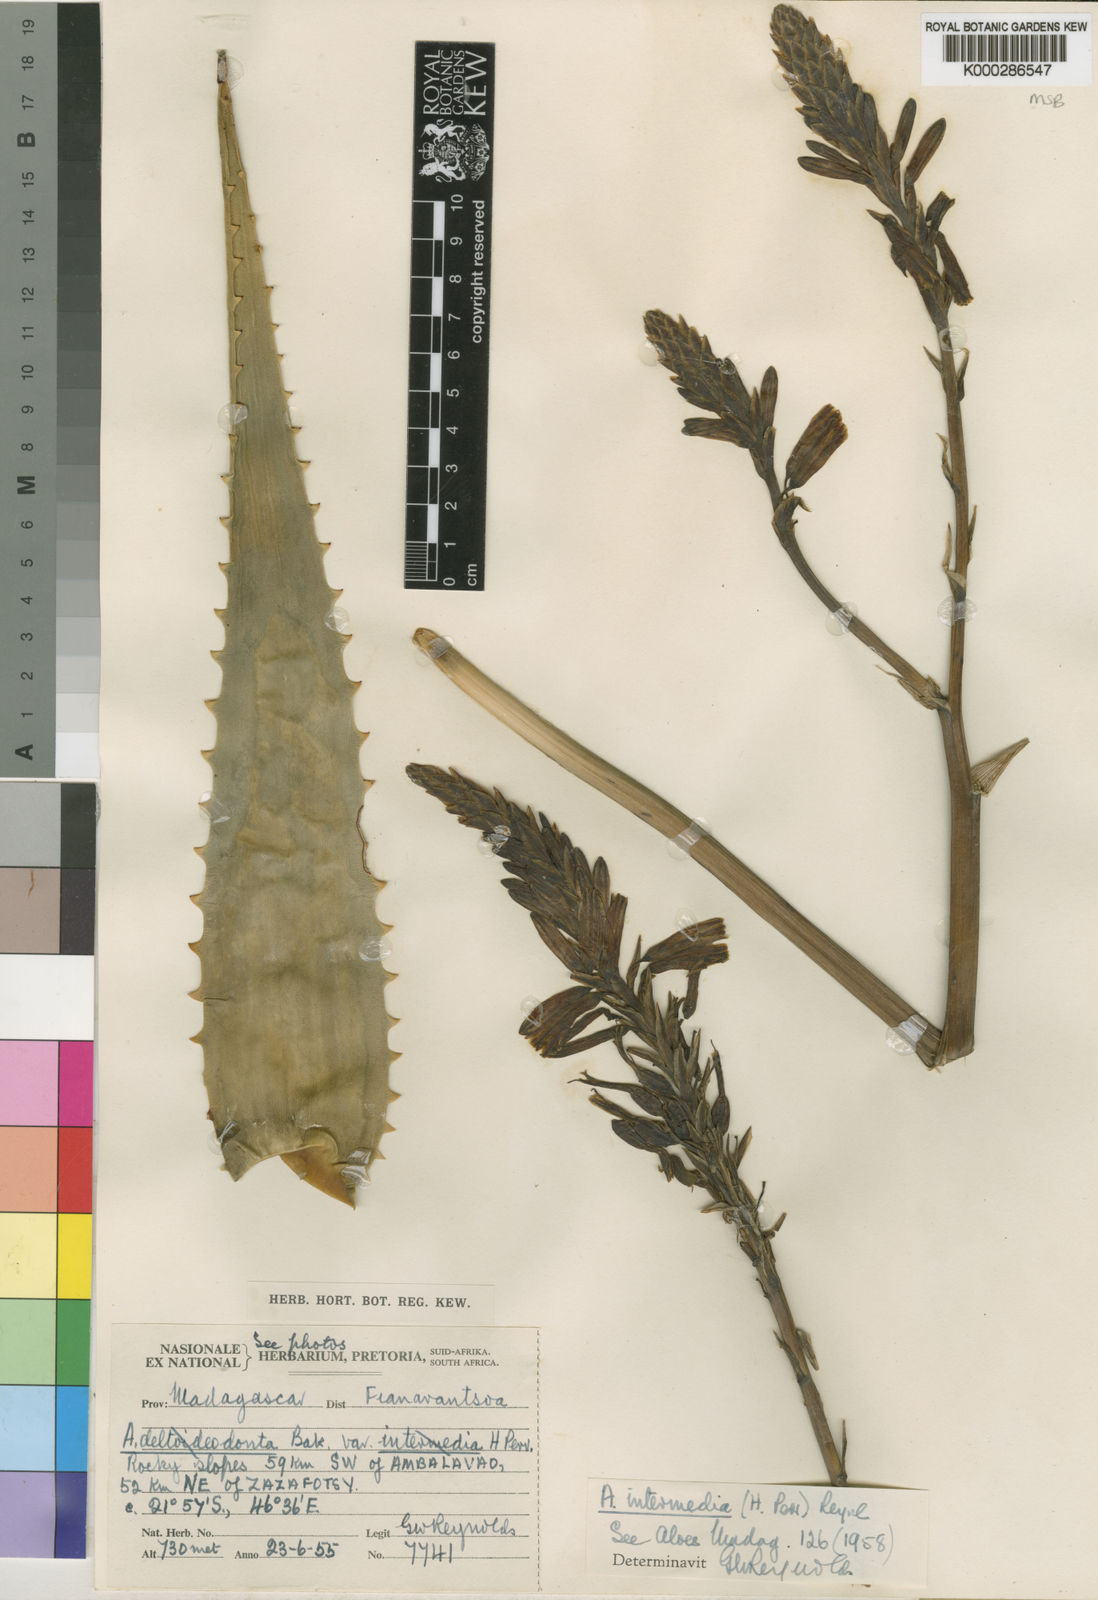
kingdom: Plantae
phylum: Tracheophyta
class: Liliopsida
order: Asparagales
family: Asphodelaceae
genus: Aloe
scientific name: Aloe subacutissima
